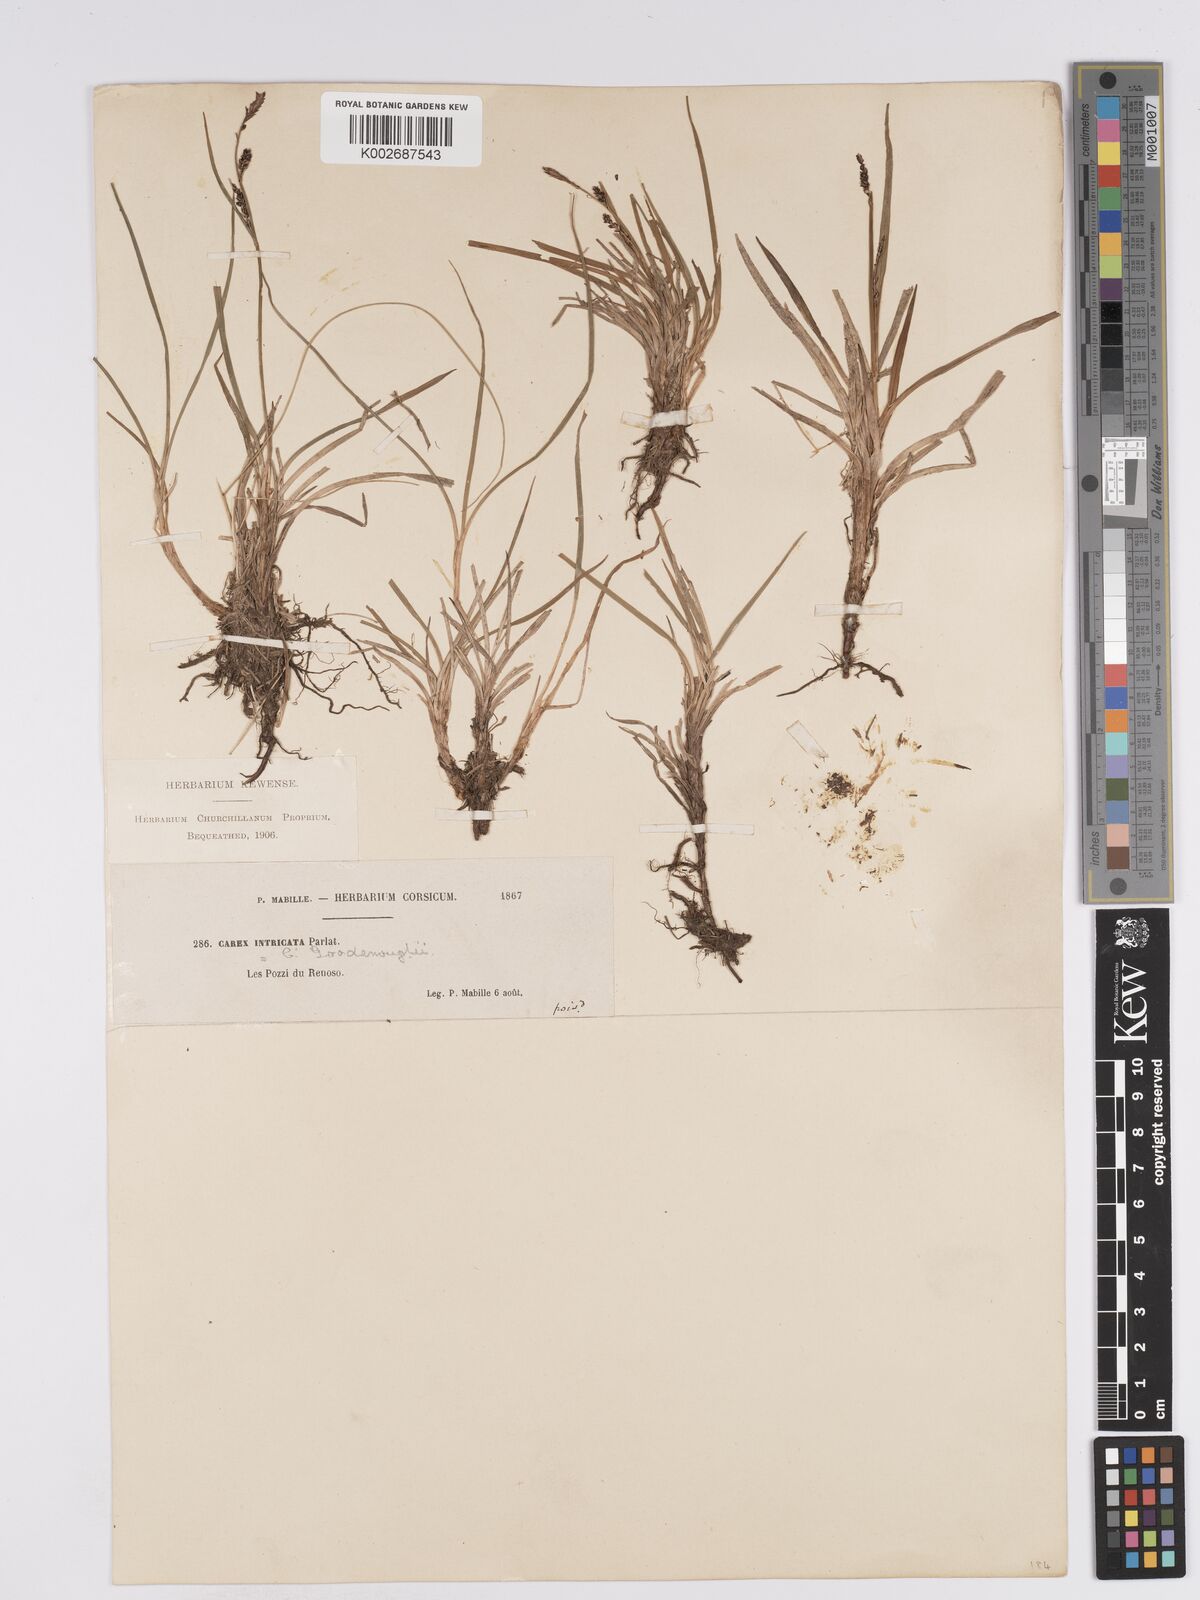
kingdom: Plantae
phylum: Tracheophyta
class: Liliopsida
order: Poales
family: Cyperaceae
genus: Carex
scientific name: Carex nigra
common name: Common sedge
